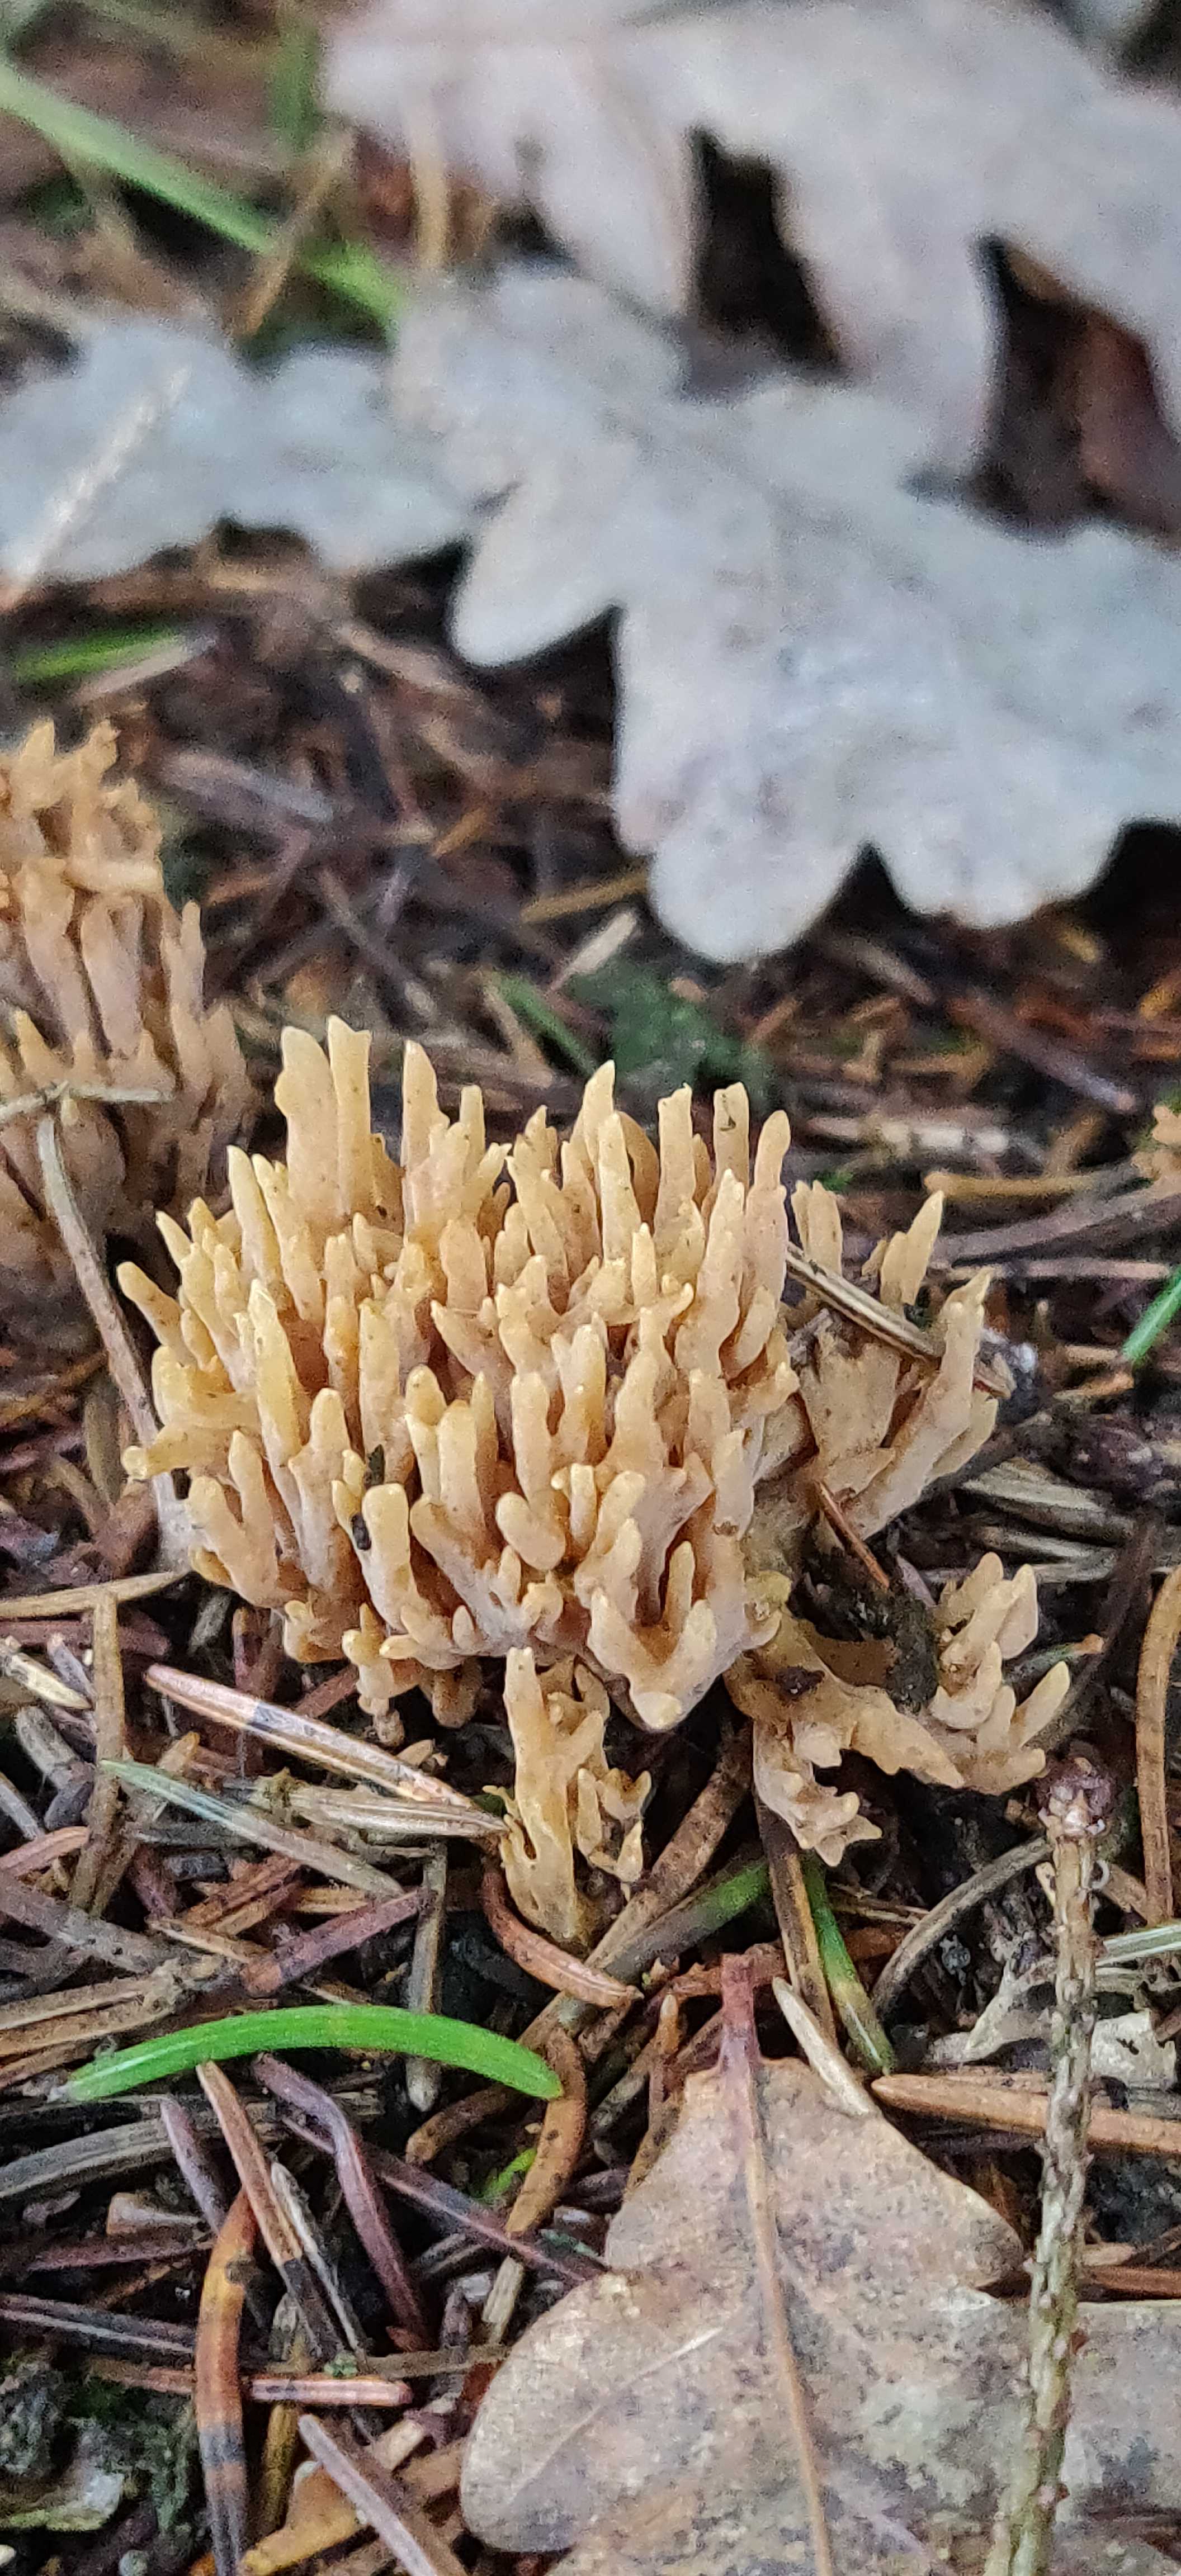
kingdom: Fungi
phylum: Basidiomycota
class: Agaricomycetes
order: Gomphales
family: Gomphaceae
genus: Phaeoclavulina
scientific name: Phaeoclavulina eumorpha
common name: gran-koralsvamp
